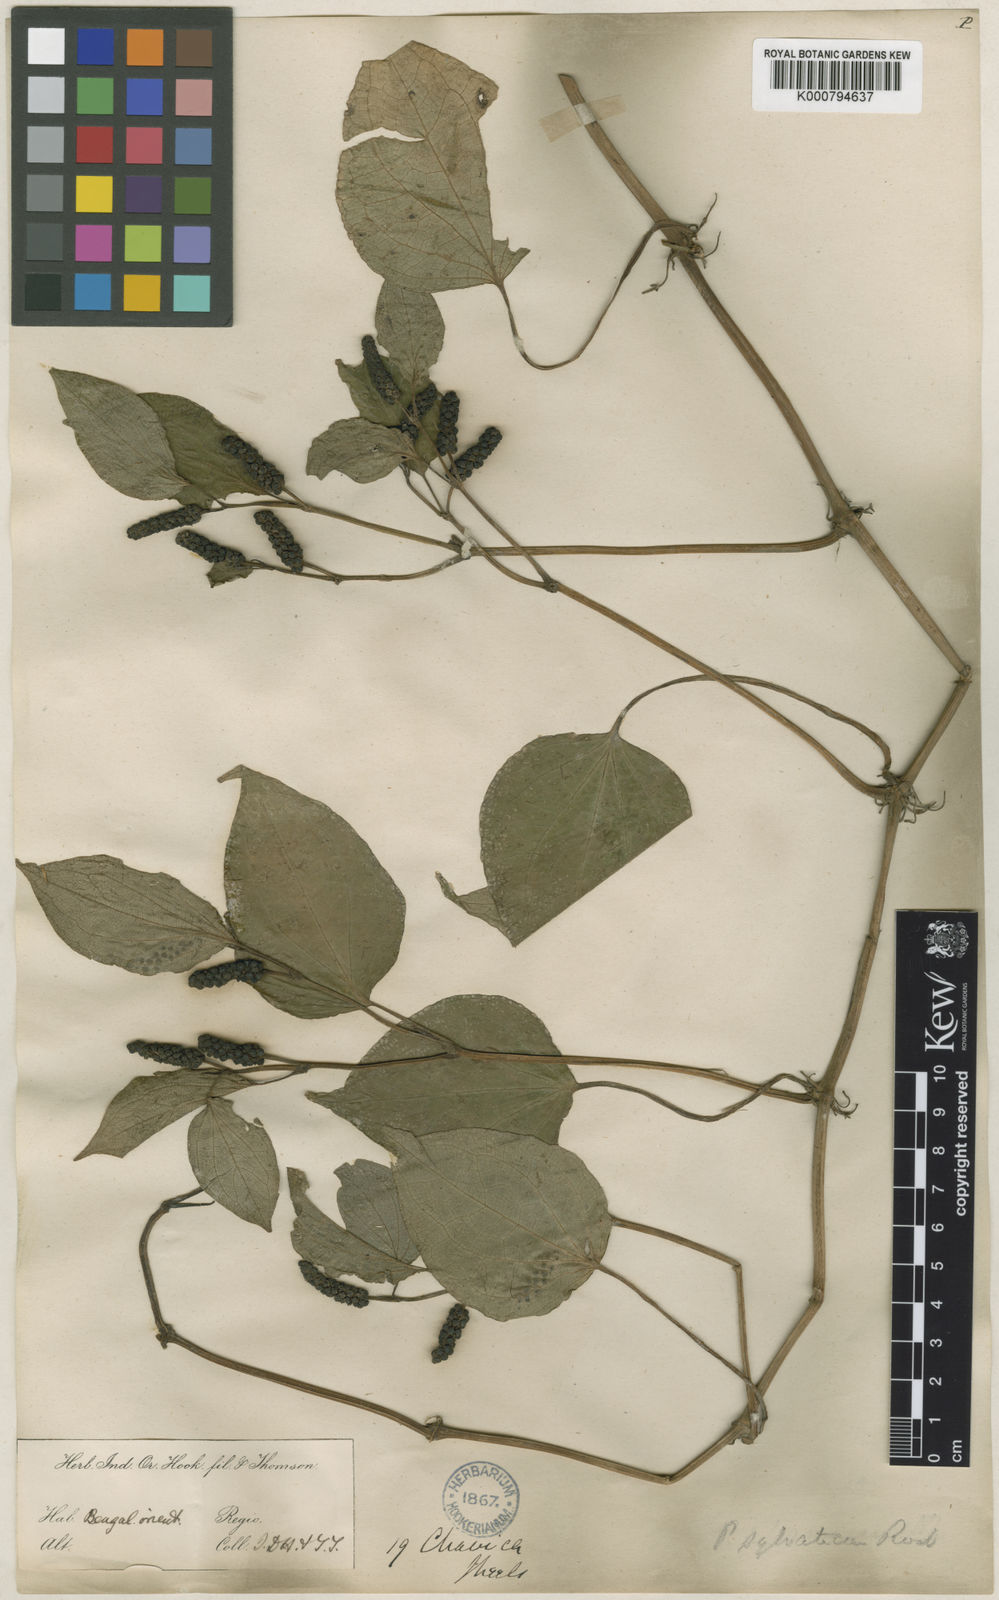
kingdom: Plantae
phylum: Tracheophyta
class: Magnoliopsida
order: Piperales
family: Piperaceae
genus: Piper
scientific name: Piper sylvaticum
